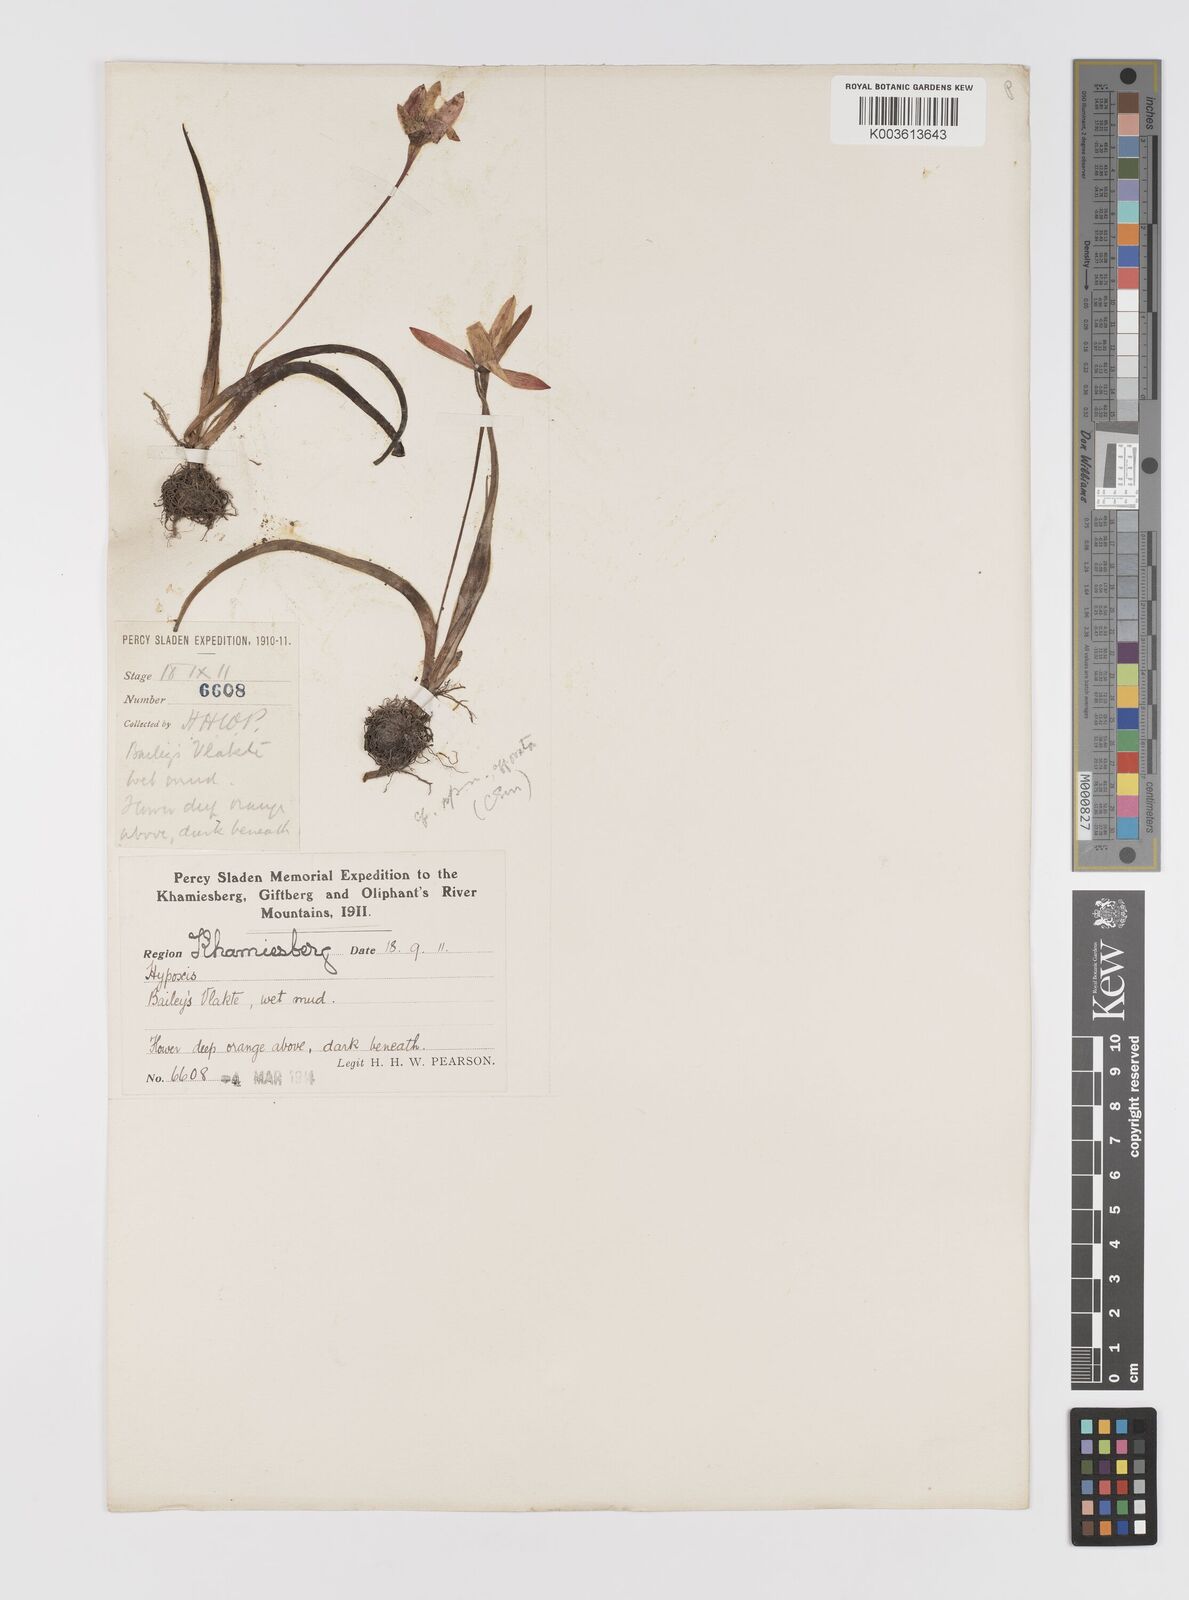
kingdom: Plantae
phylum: Tracheophyta
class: Liliopsida
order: Asparagales
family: Hypoxidaceae
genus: Pauridia
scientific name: Pauridia
